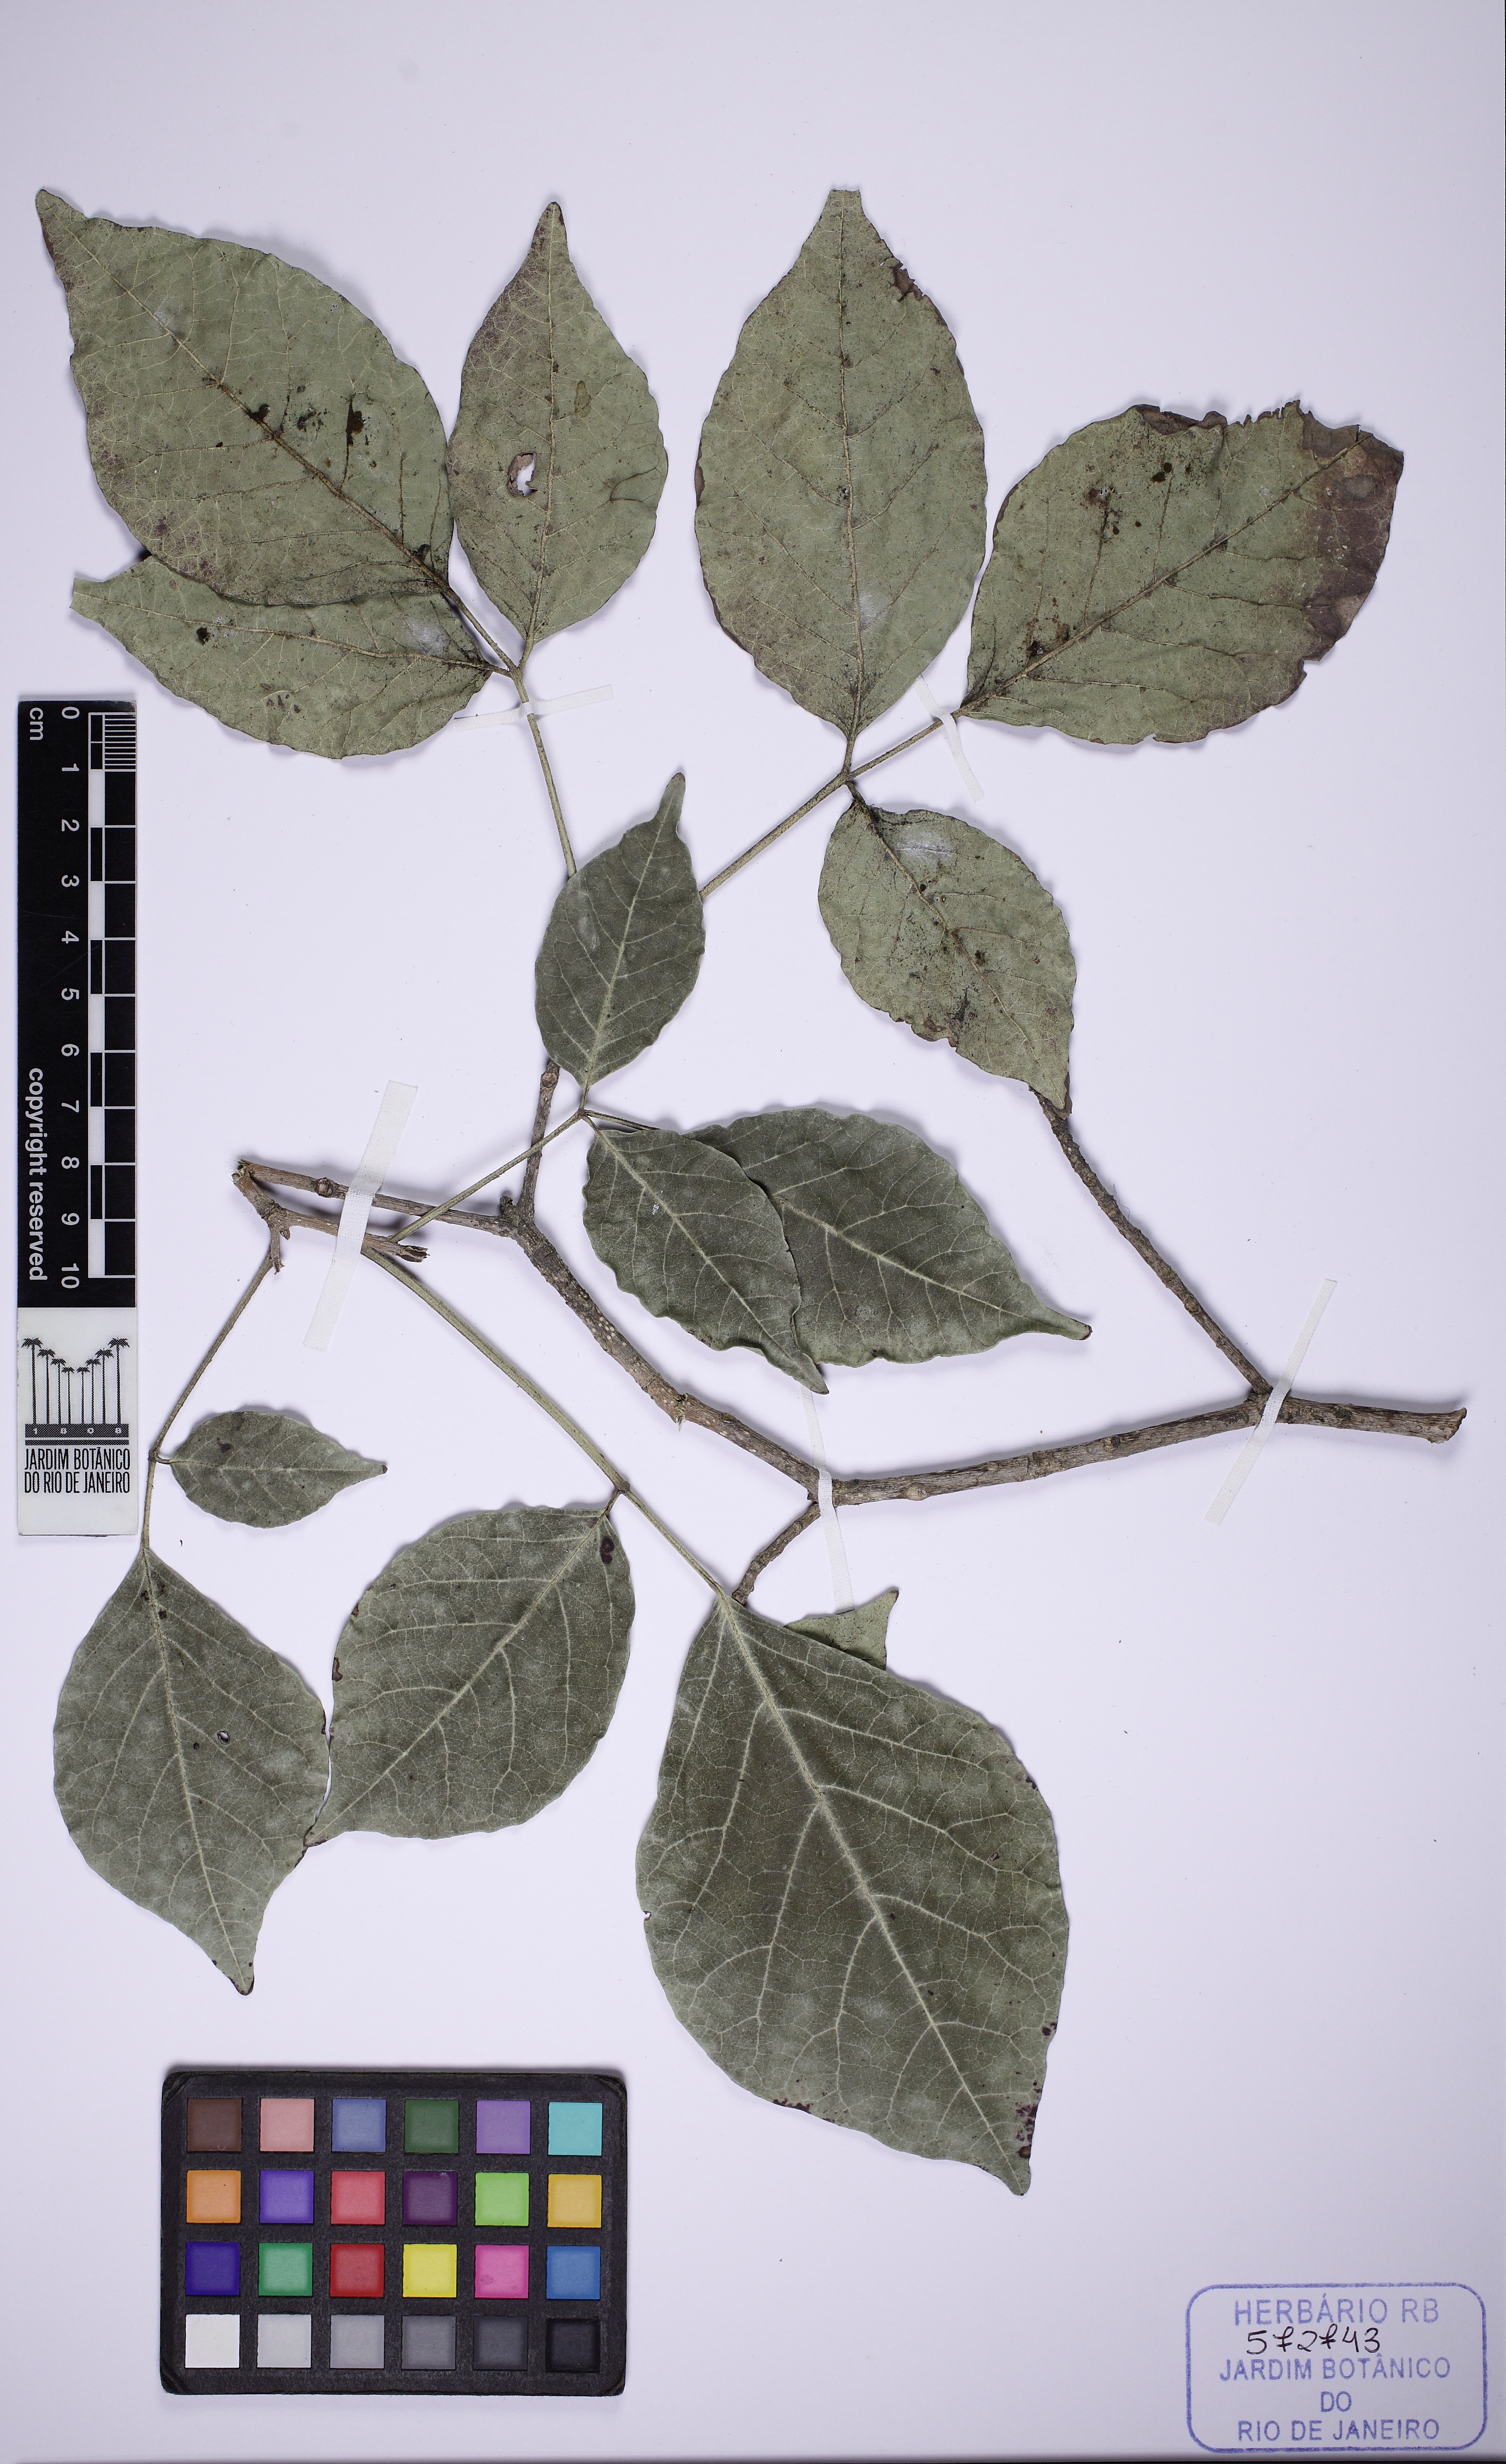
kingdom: Plantae
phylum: Tracheophyta
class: Magnoliopsida
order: Lamiales
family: Bignoniaceae
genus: Tabebuia
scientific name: Tabebuia roseoalba
